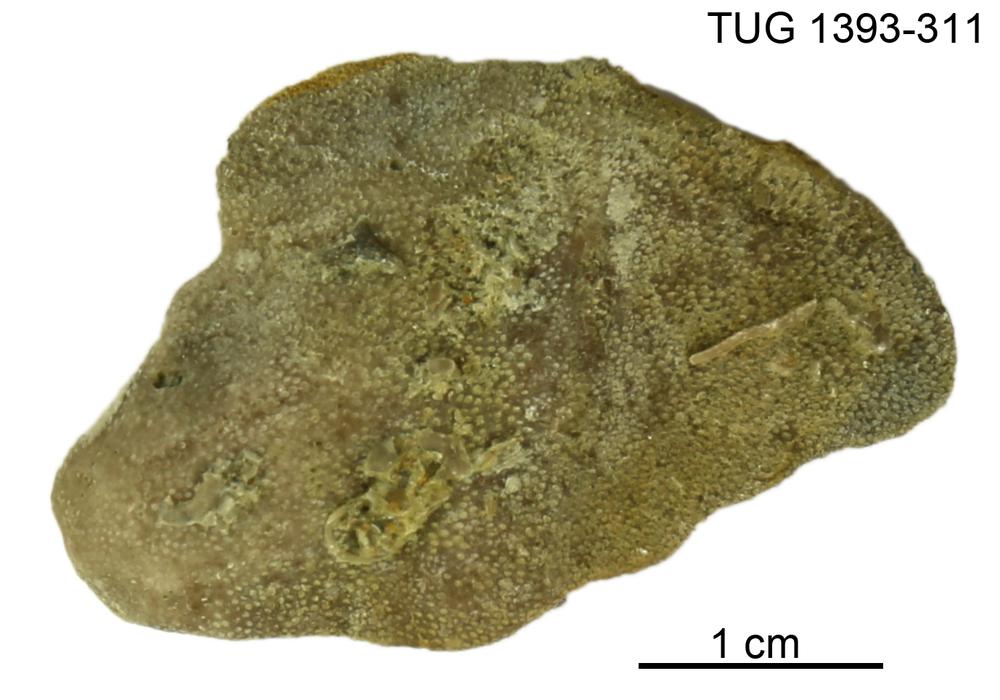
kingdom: Animalia
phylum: Bryozoa
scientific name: Bryozoa
